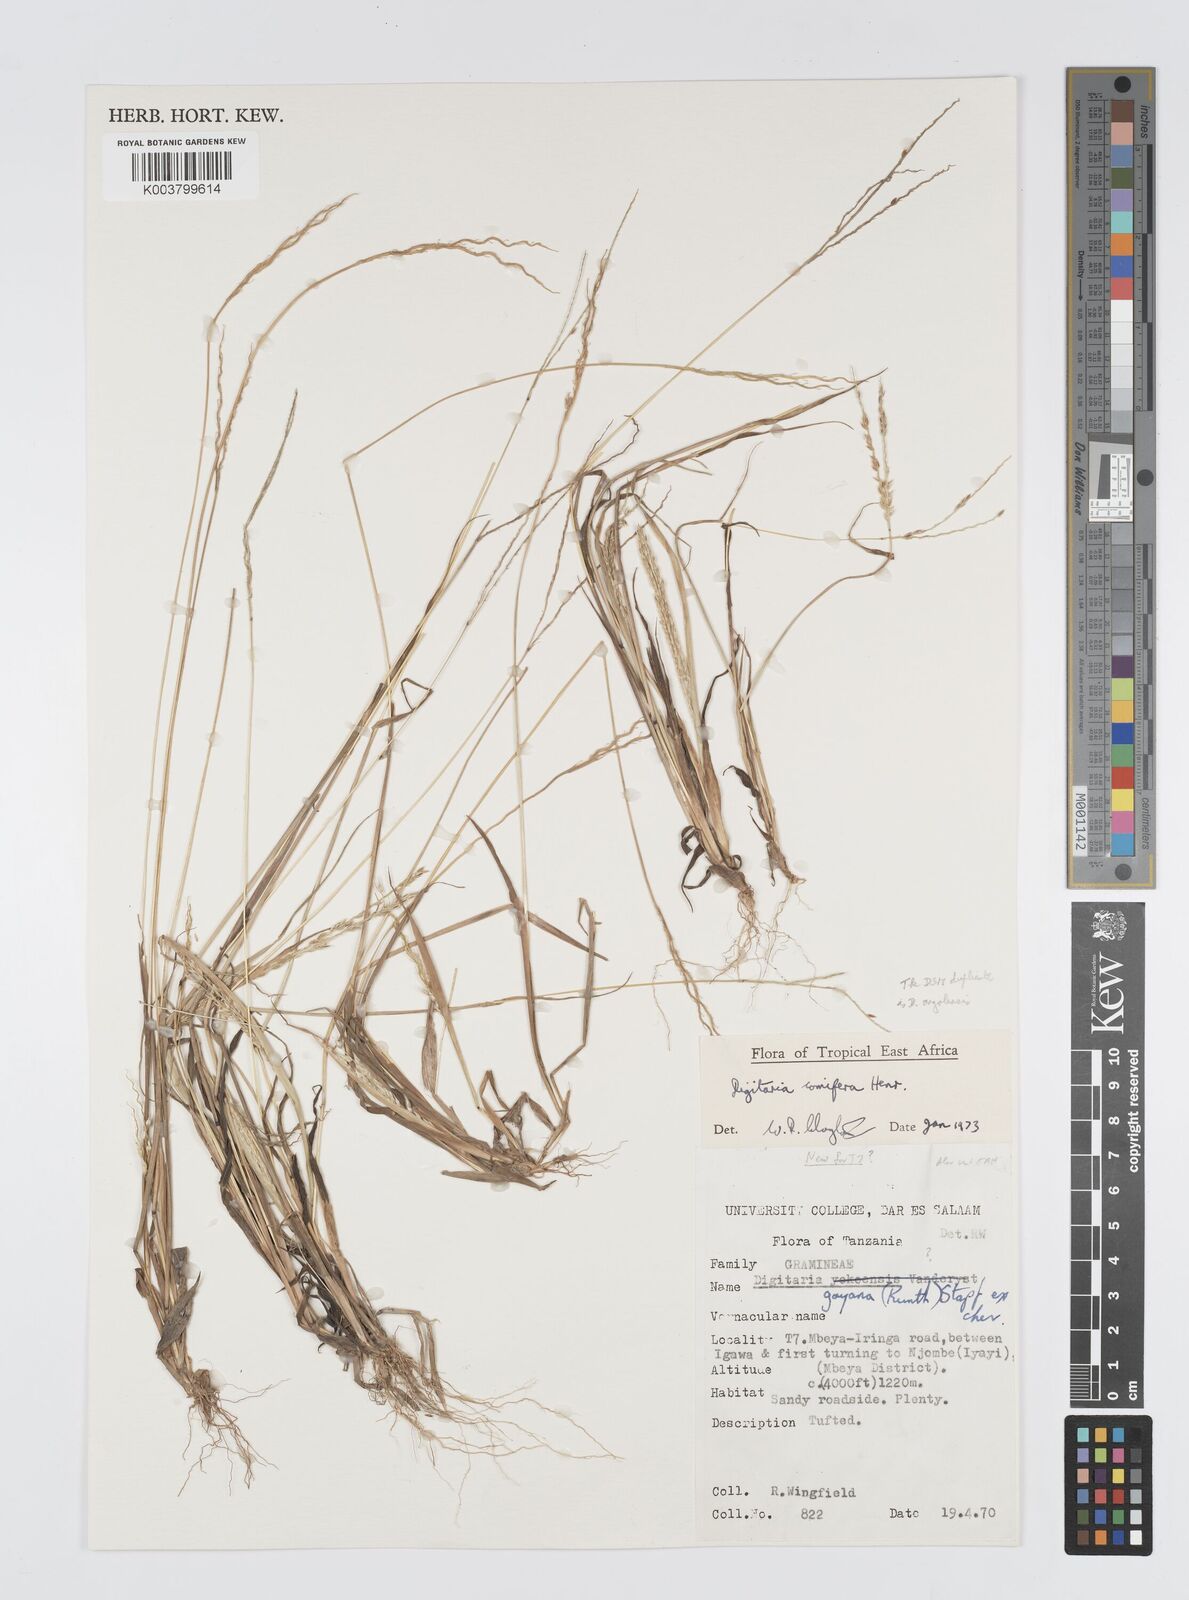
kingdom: Plantae
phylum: Tracheophyta
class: Liliopsida
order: Poales
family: Poaceae
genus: Digitaria
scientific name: Digitaria comifera
